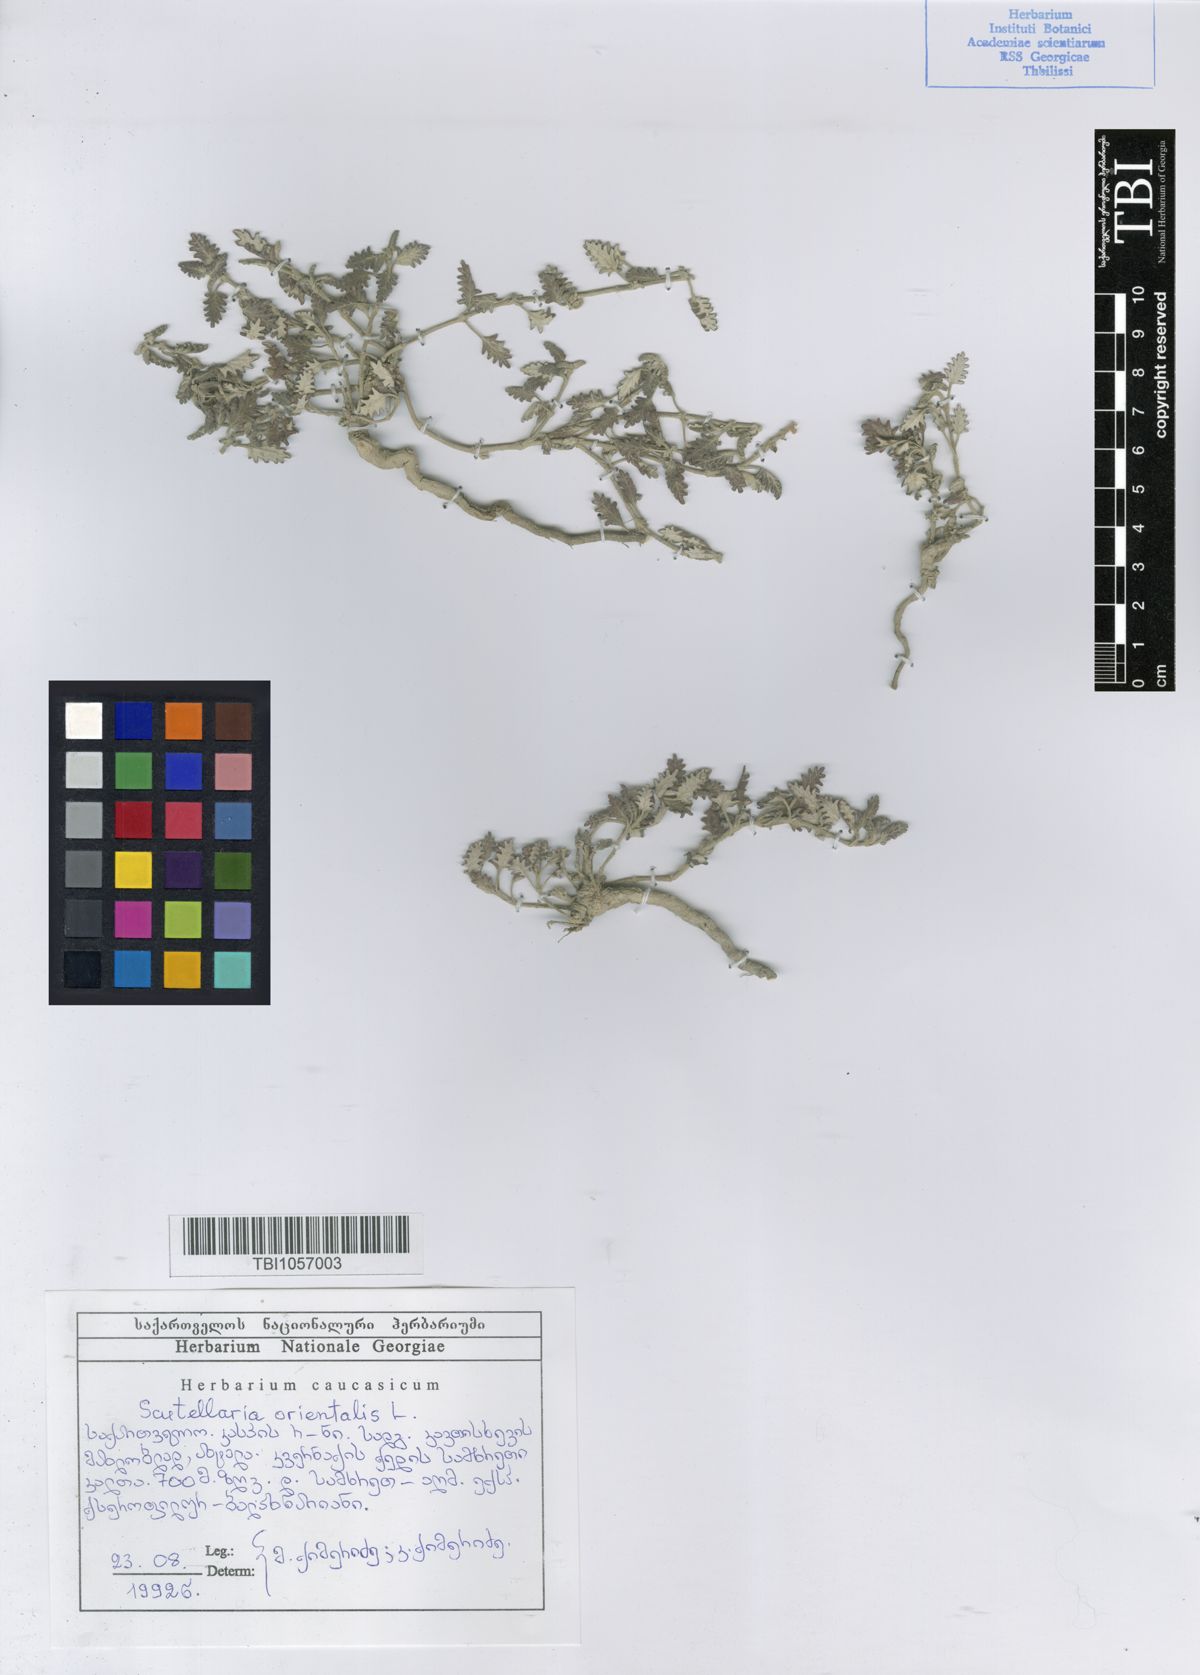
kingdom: Plantae
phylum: Tracheophyta
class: Magnoliopsida
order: Lamiales
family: Lamiaceae
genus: Scutellaria
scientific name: Scutellaria orientalis
